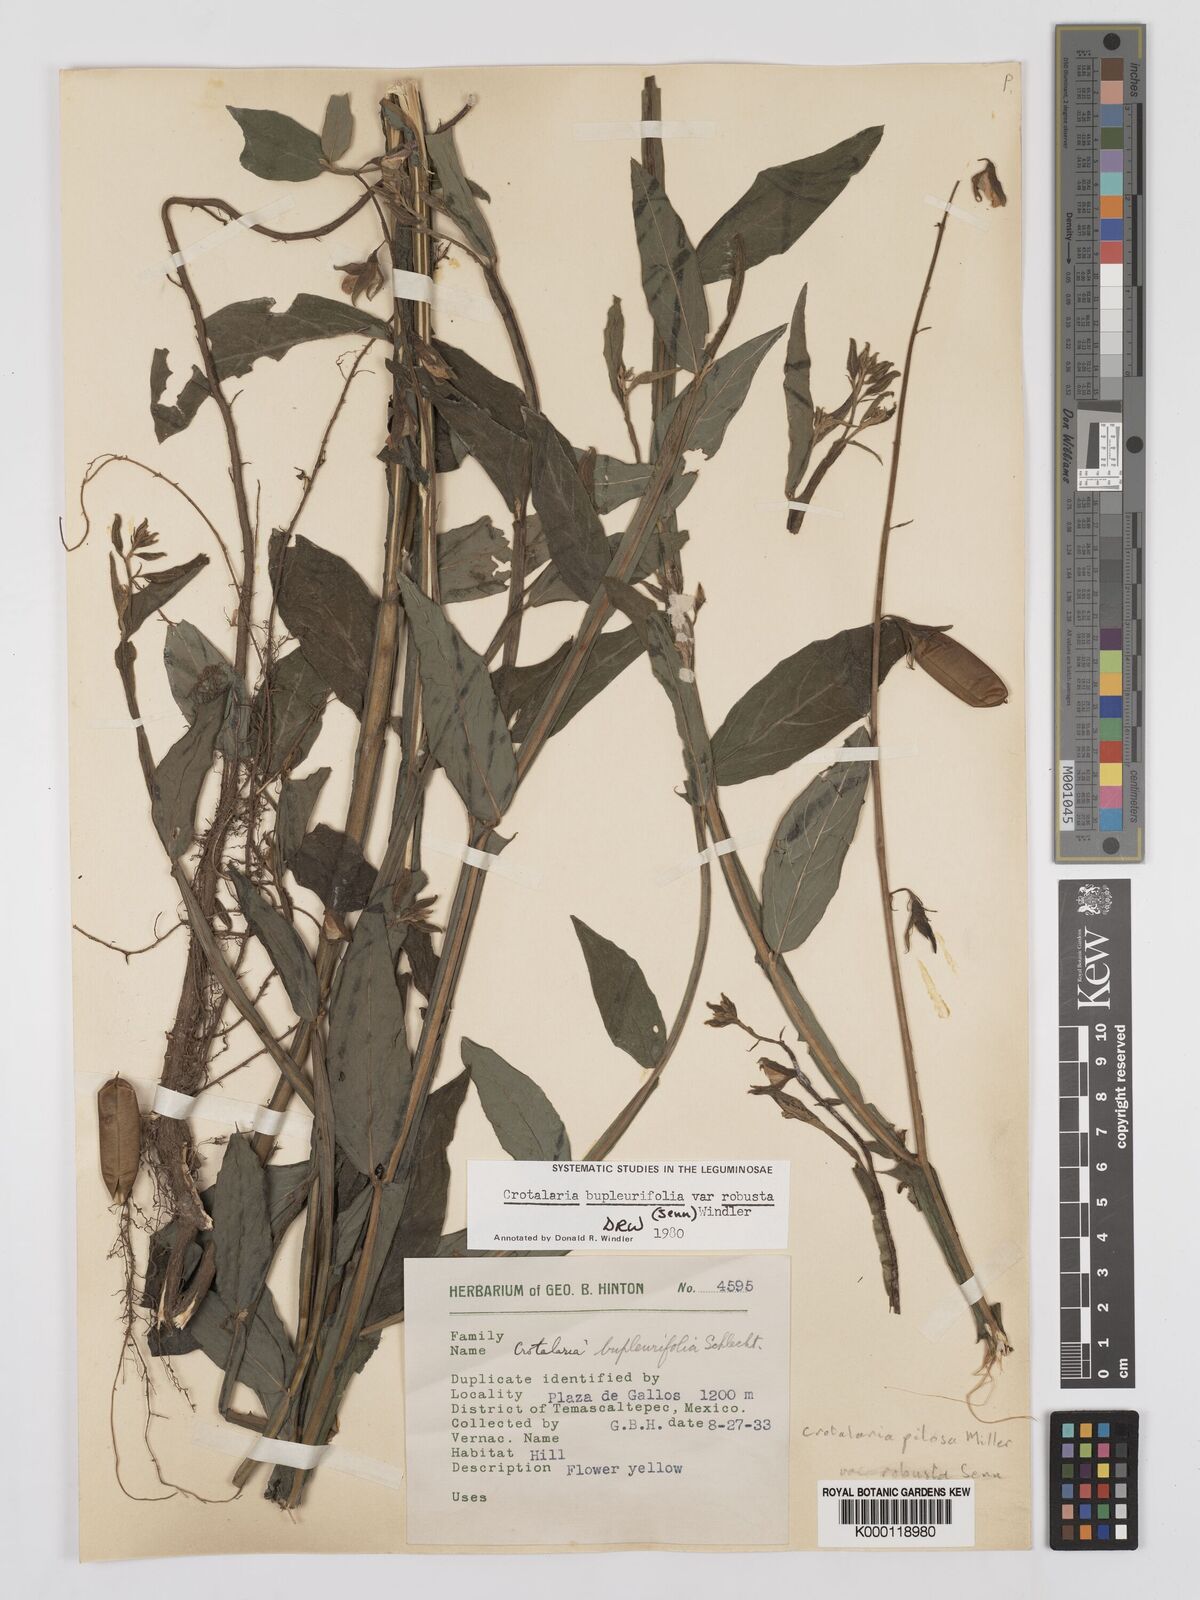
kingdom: Plantae
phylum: Tracheophyta
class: Magnoliopsida
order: Fabales
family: Fabaceae
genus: Crotalaria
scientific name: Crotalaria bupleurifolia
